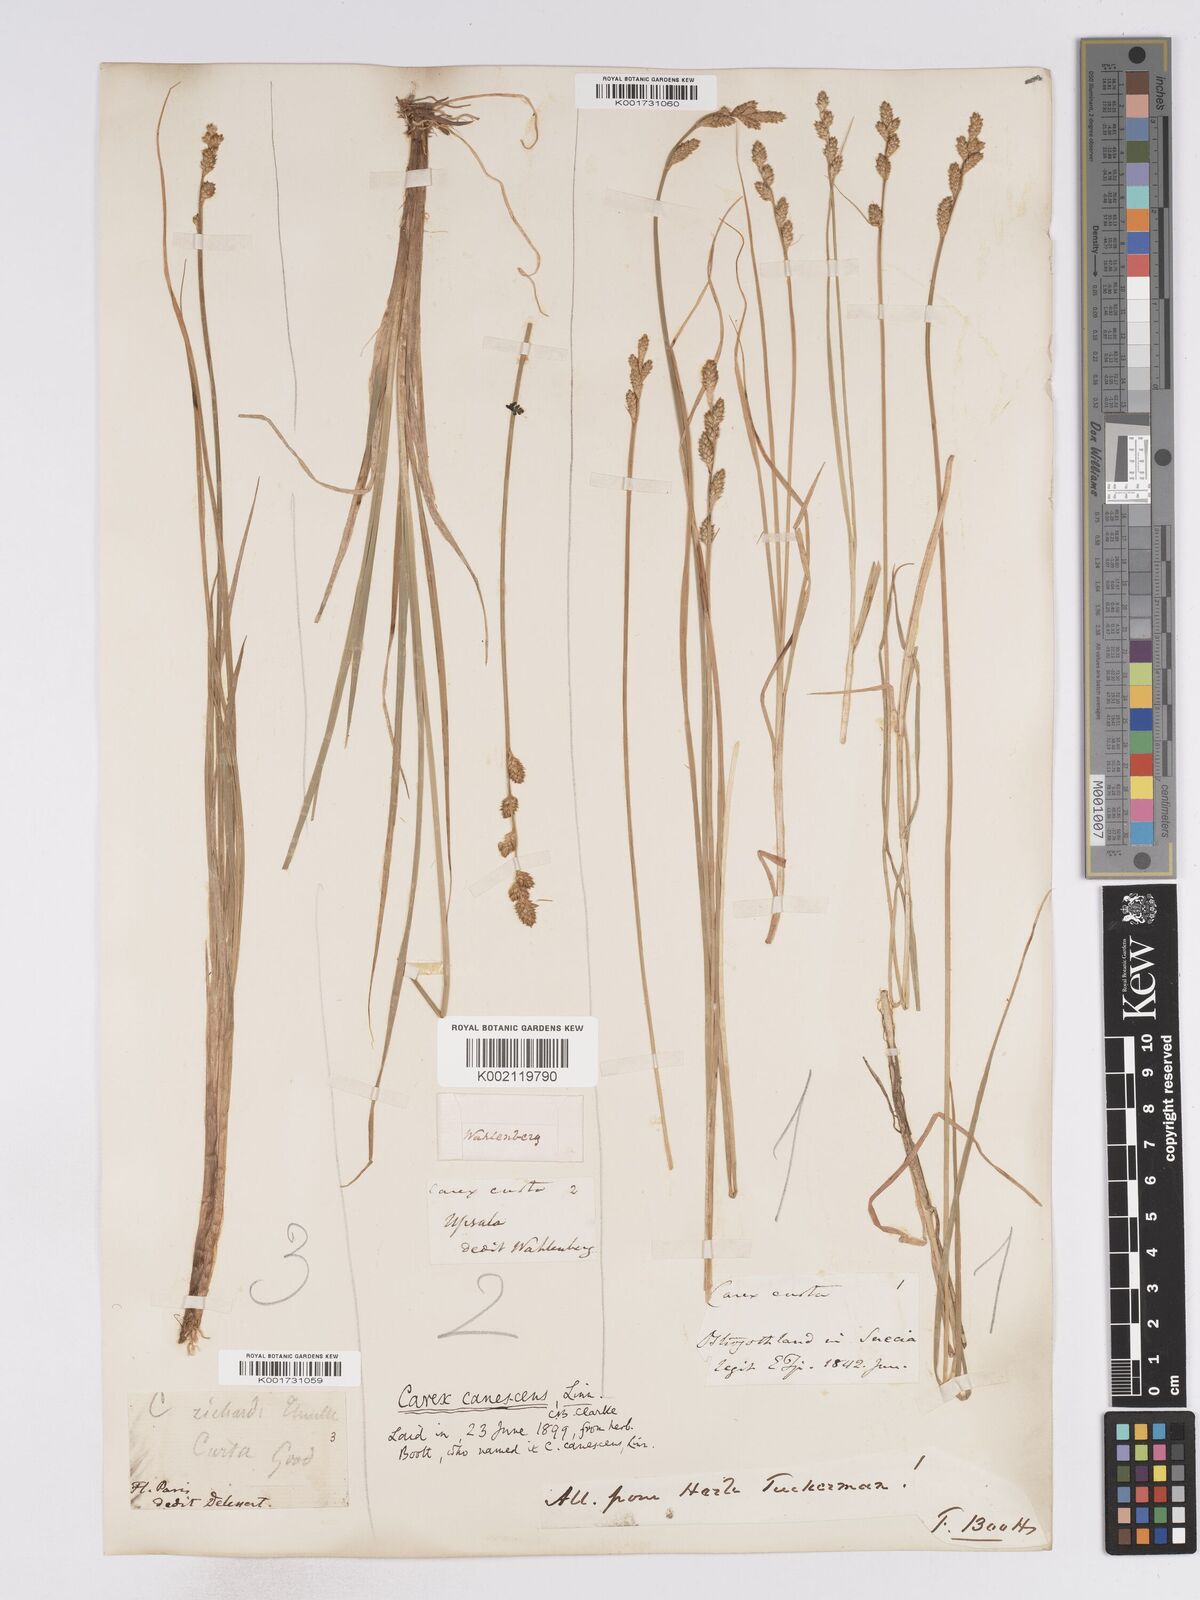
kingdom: Plantae
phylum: Tracheophyta
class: Liliopsida
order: Poales
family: Cyperaceae
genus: Carex
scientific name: Carex curta
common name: White sedge
